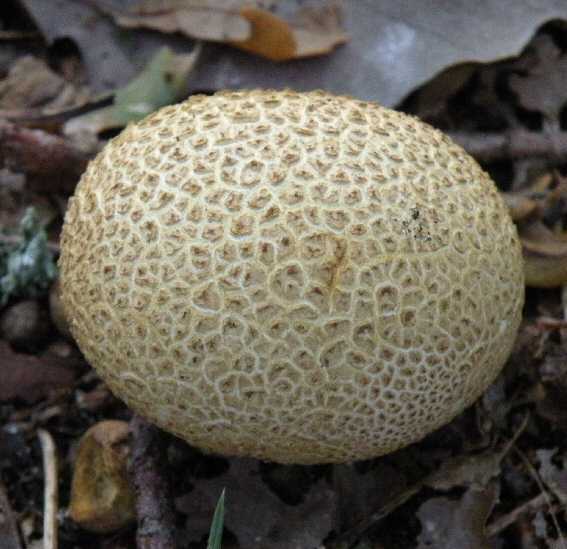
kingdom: Fungi
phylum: Basidiomycota
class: Agaricomycetes
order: Boletales
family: Sclerodermataceae
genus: Scleroderma
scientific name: Scleroderma citrinum
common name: almindelig bruskbold
